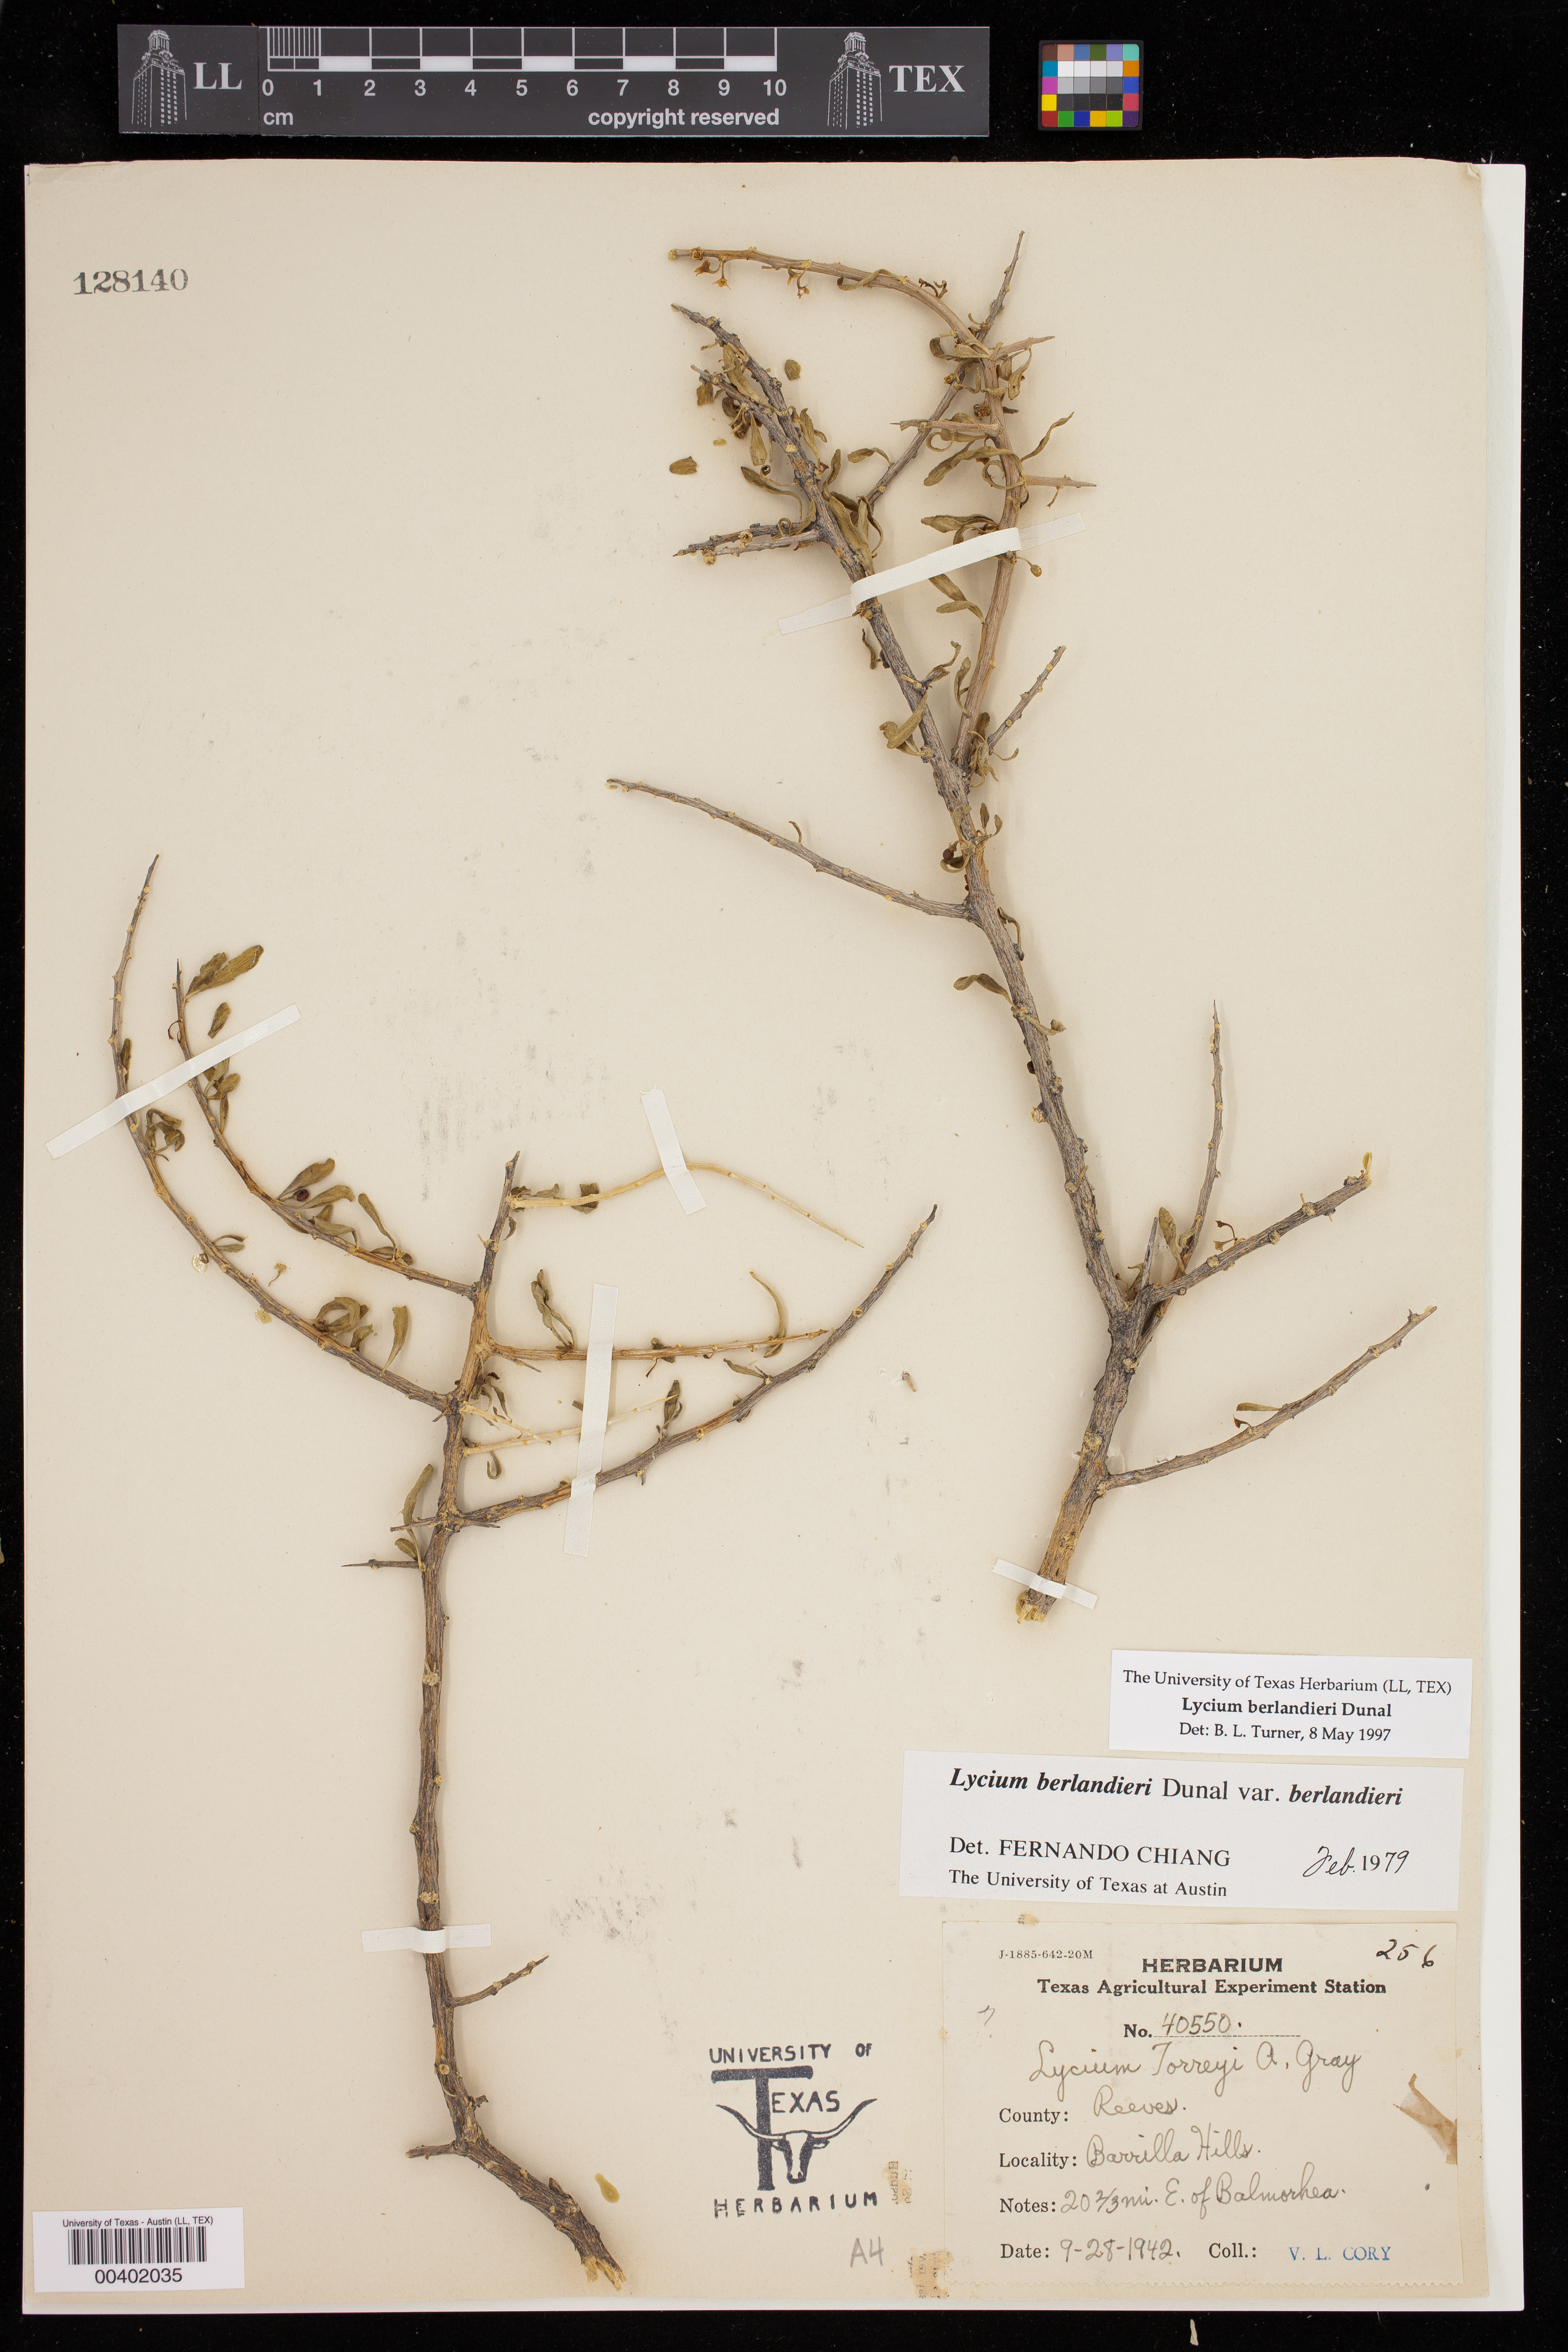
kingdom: Plantae
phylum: Tracheophyta
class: Magnoliopsida
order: Solanales
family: Solanaceae
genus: Lycium
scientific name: Lycium berlandieri
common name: Berlandier wolfberry
